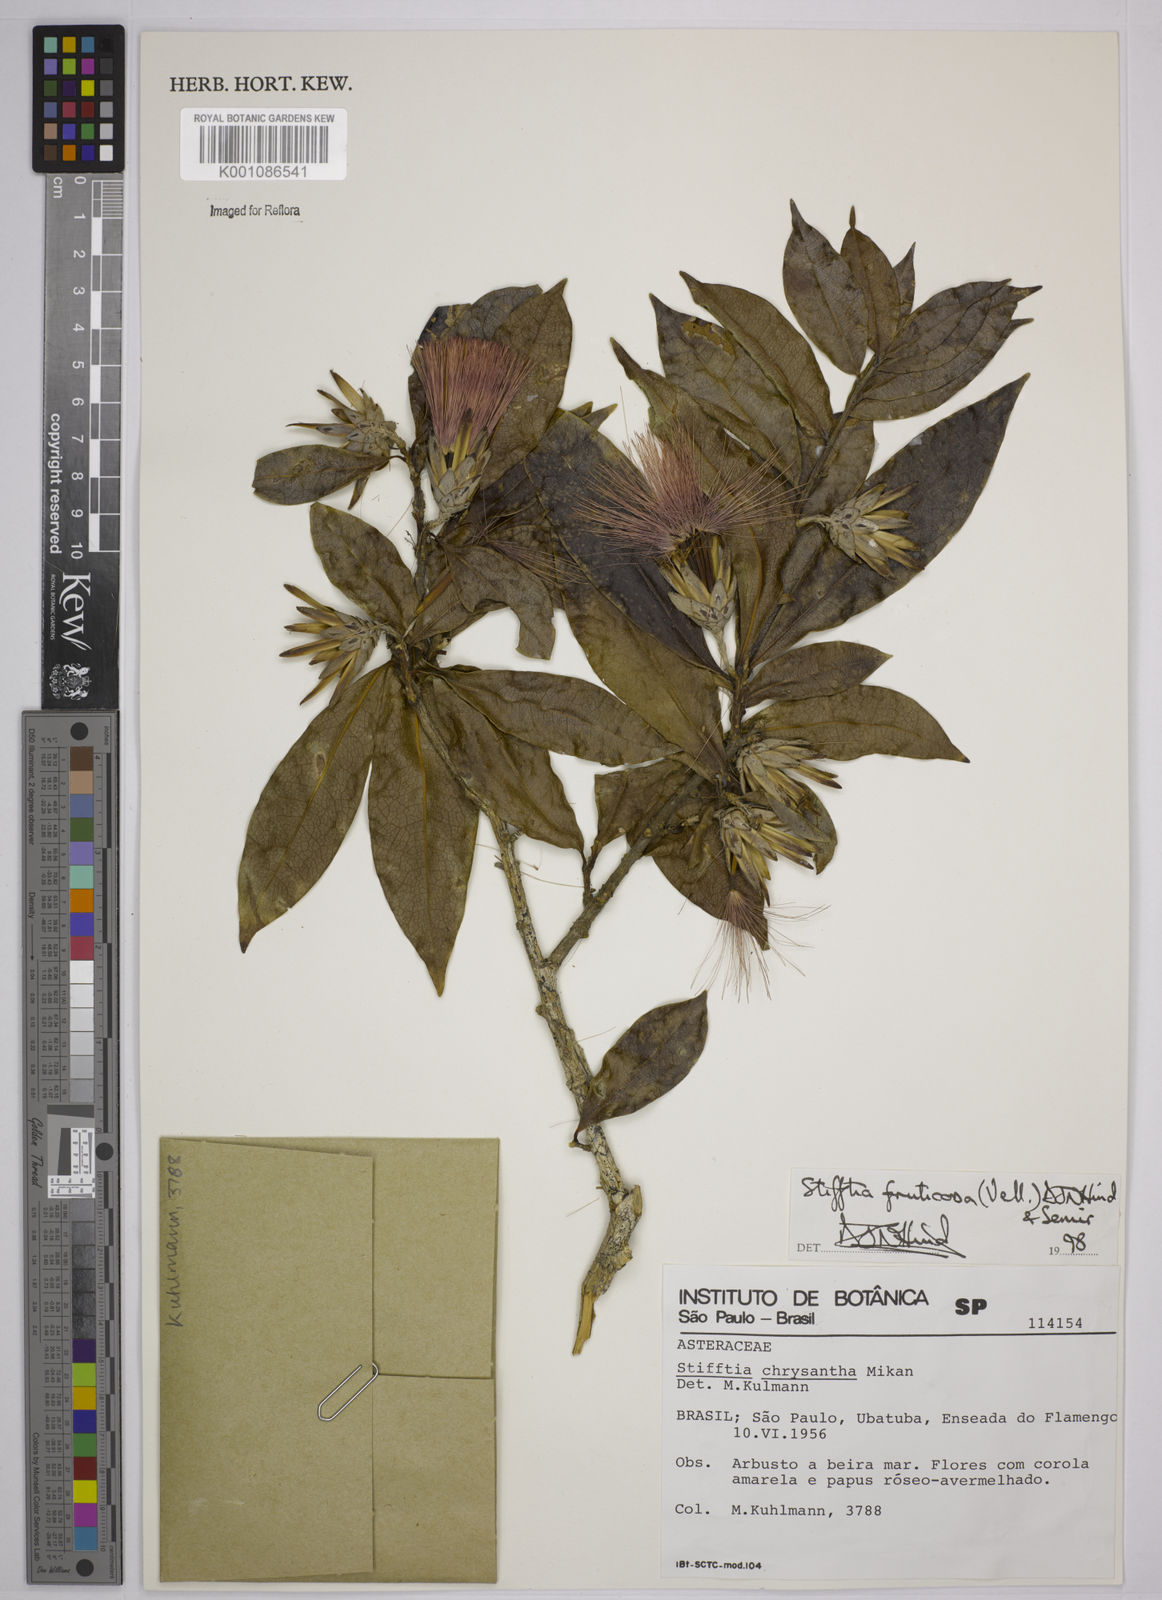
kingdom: Plantae
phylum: Tracheophyta
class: Magnoliopsida
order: Asterales
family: Asteraceae
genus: Stifftia
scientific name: Stifftia fruticosa
